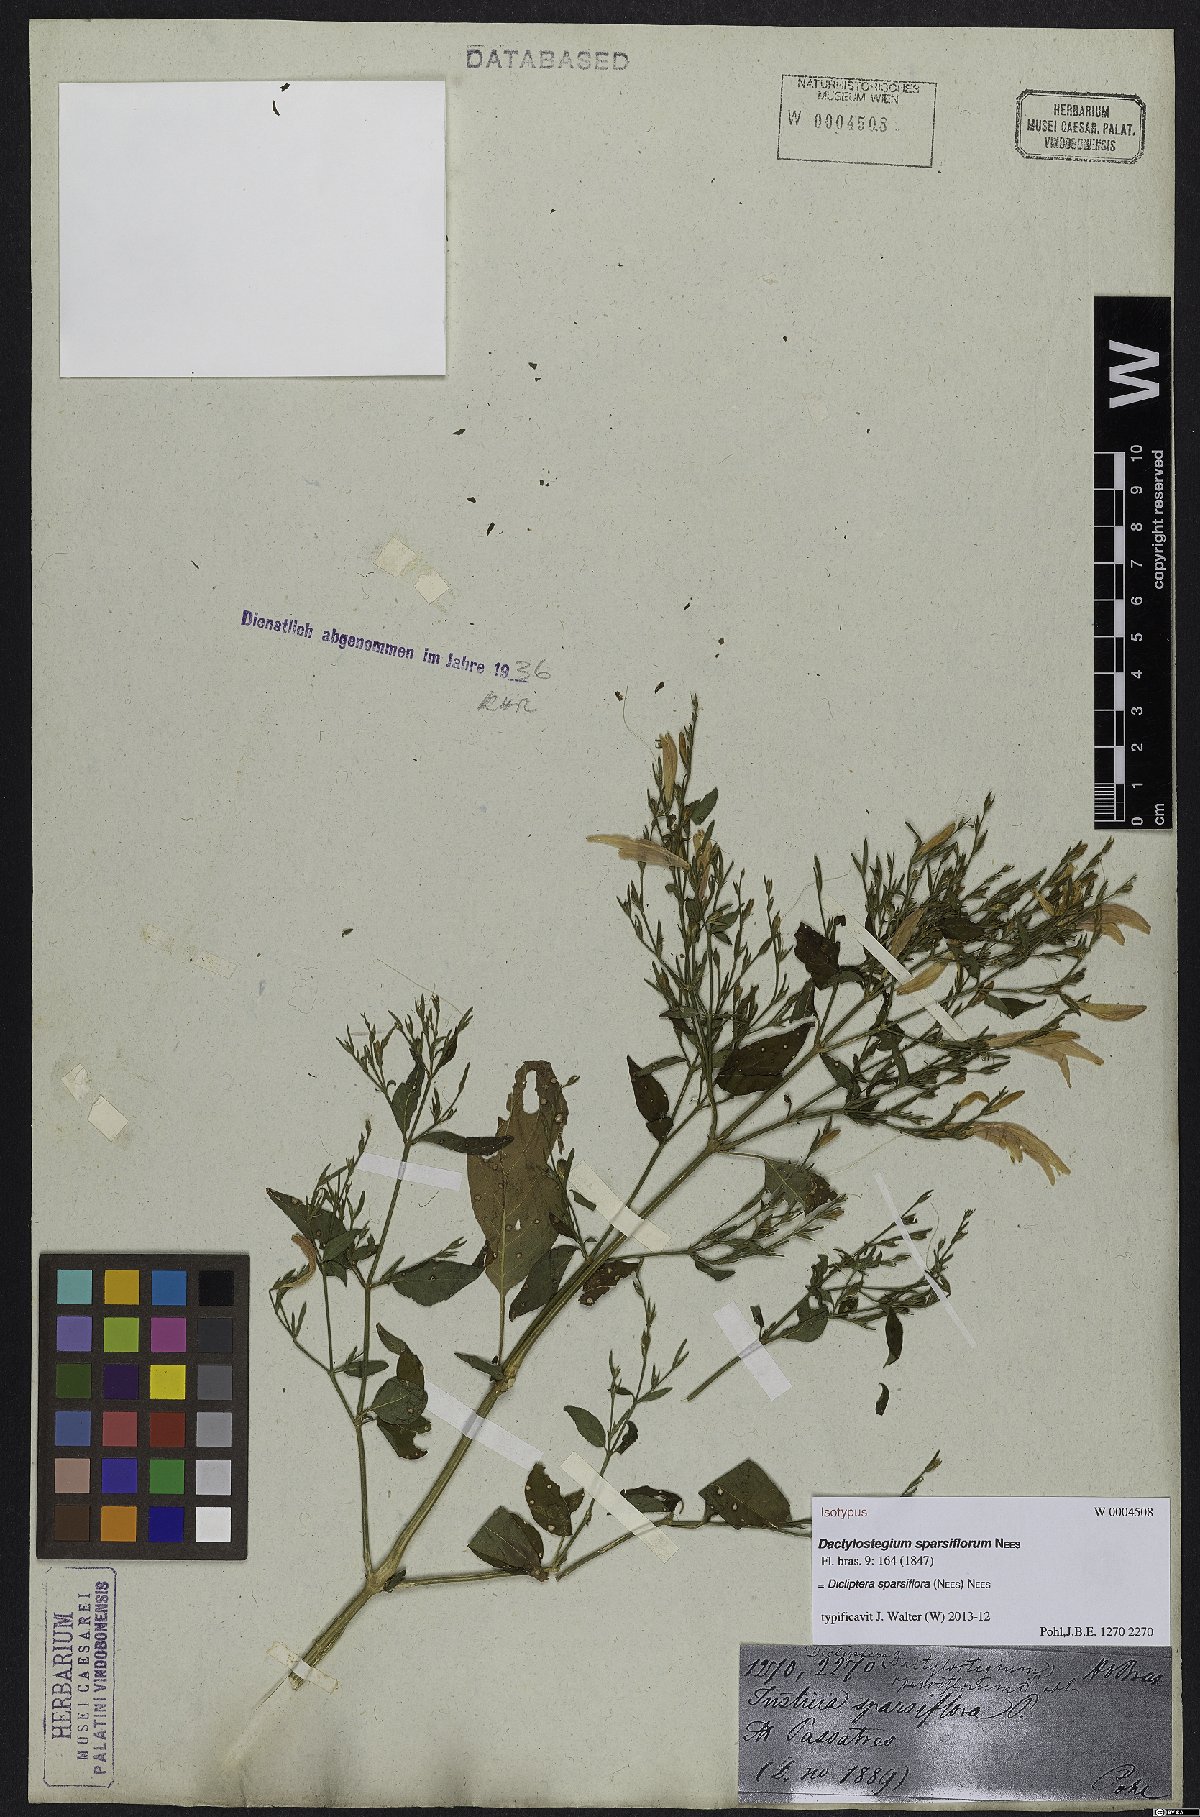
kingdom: Plantae
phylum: Tracheophyta
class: Magnoliopsida
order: Lamiales
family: Acanthaceae
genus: Dicliptera
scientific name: Dicliptera sparsiflora
